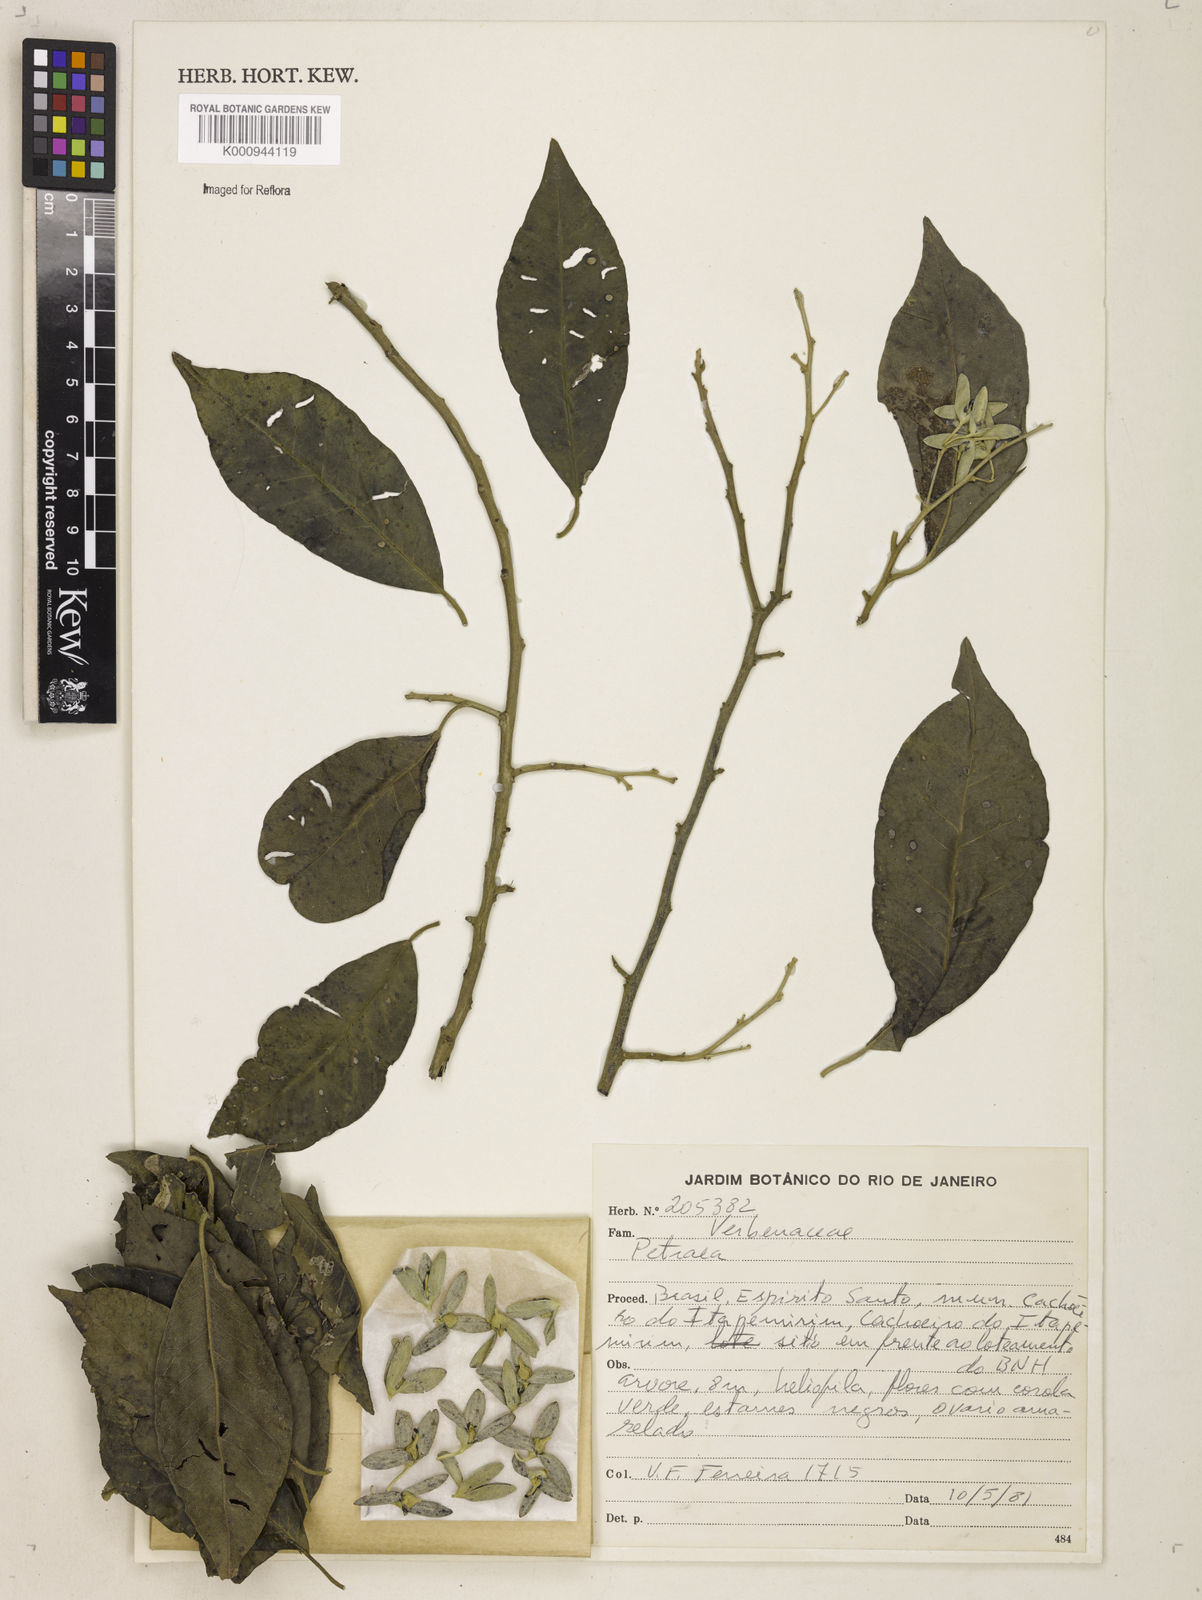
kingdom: Plantae
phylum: Tracheophyta
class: Magnoliopsida
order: Lamiales
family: Verbenaceae
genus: Petrea
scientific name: Petrea
